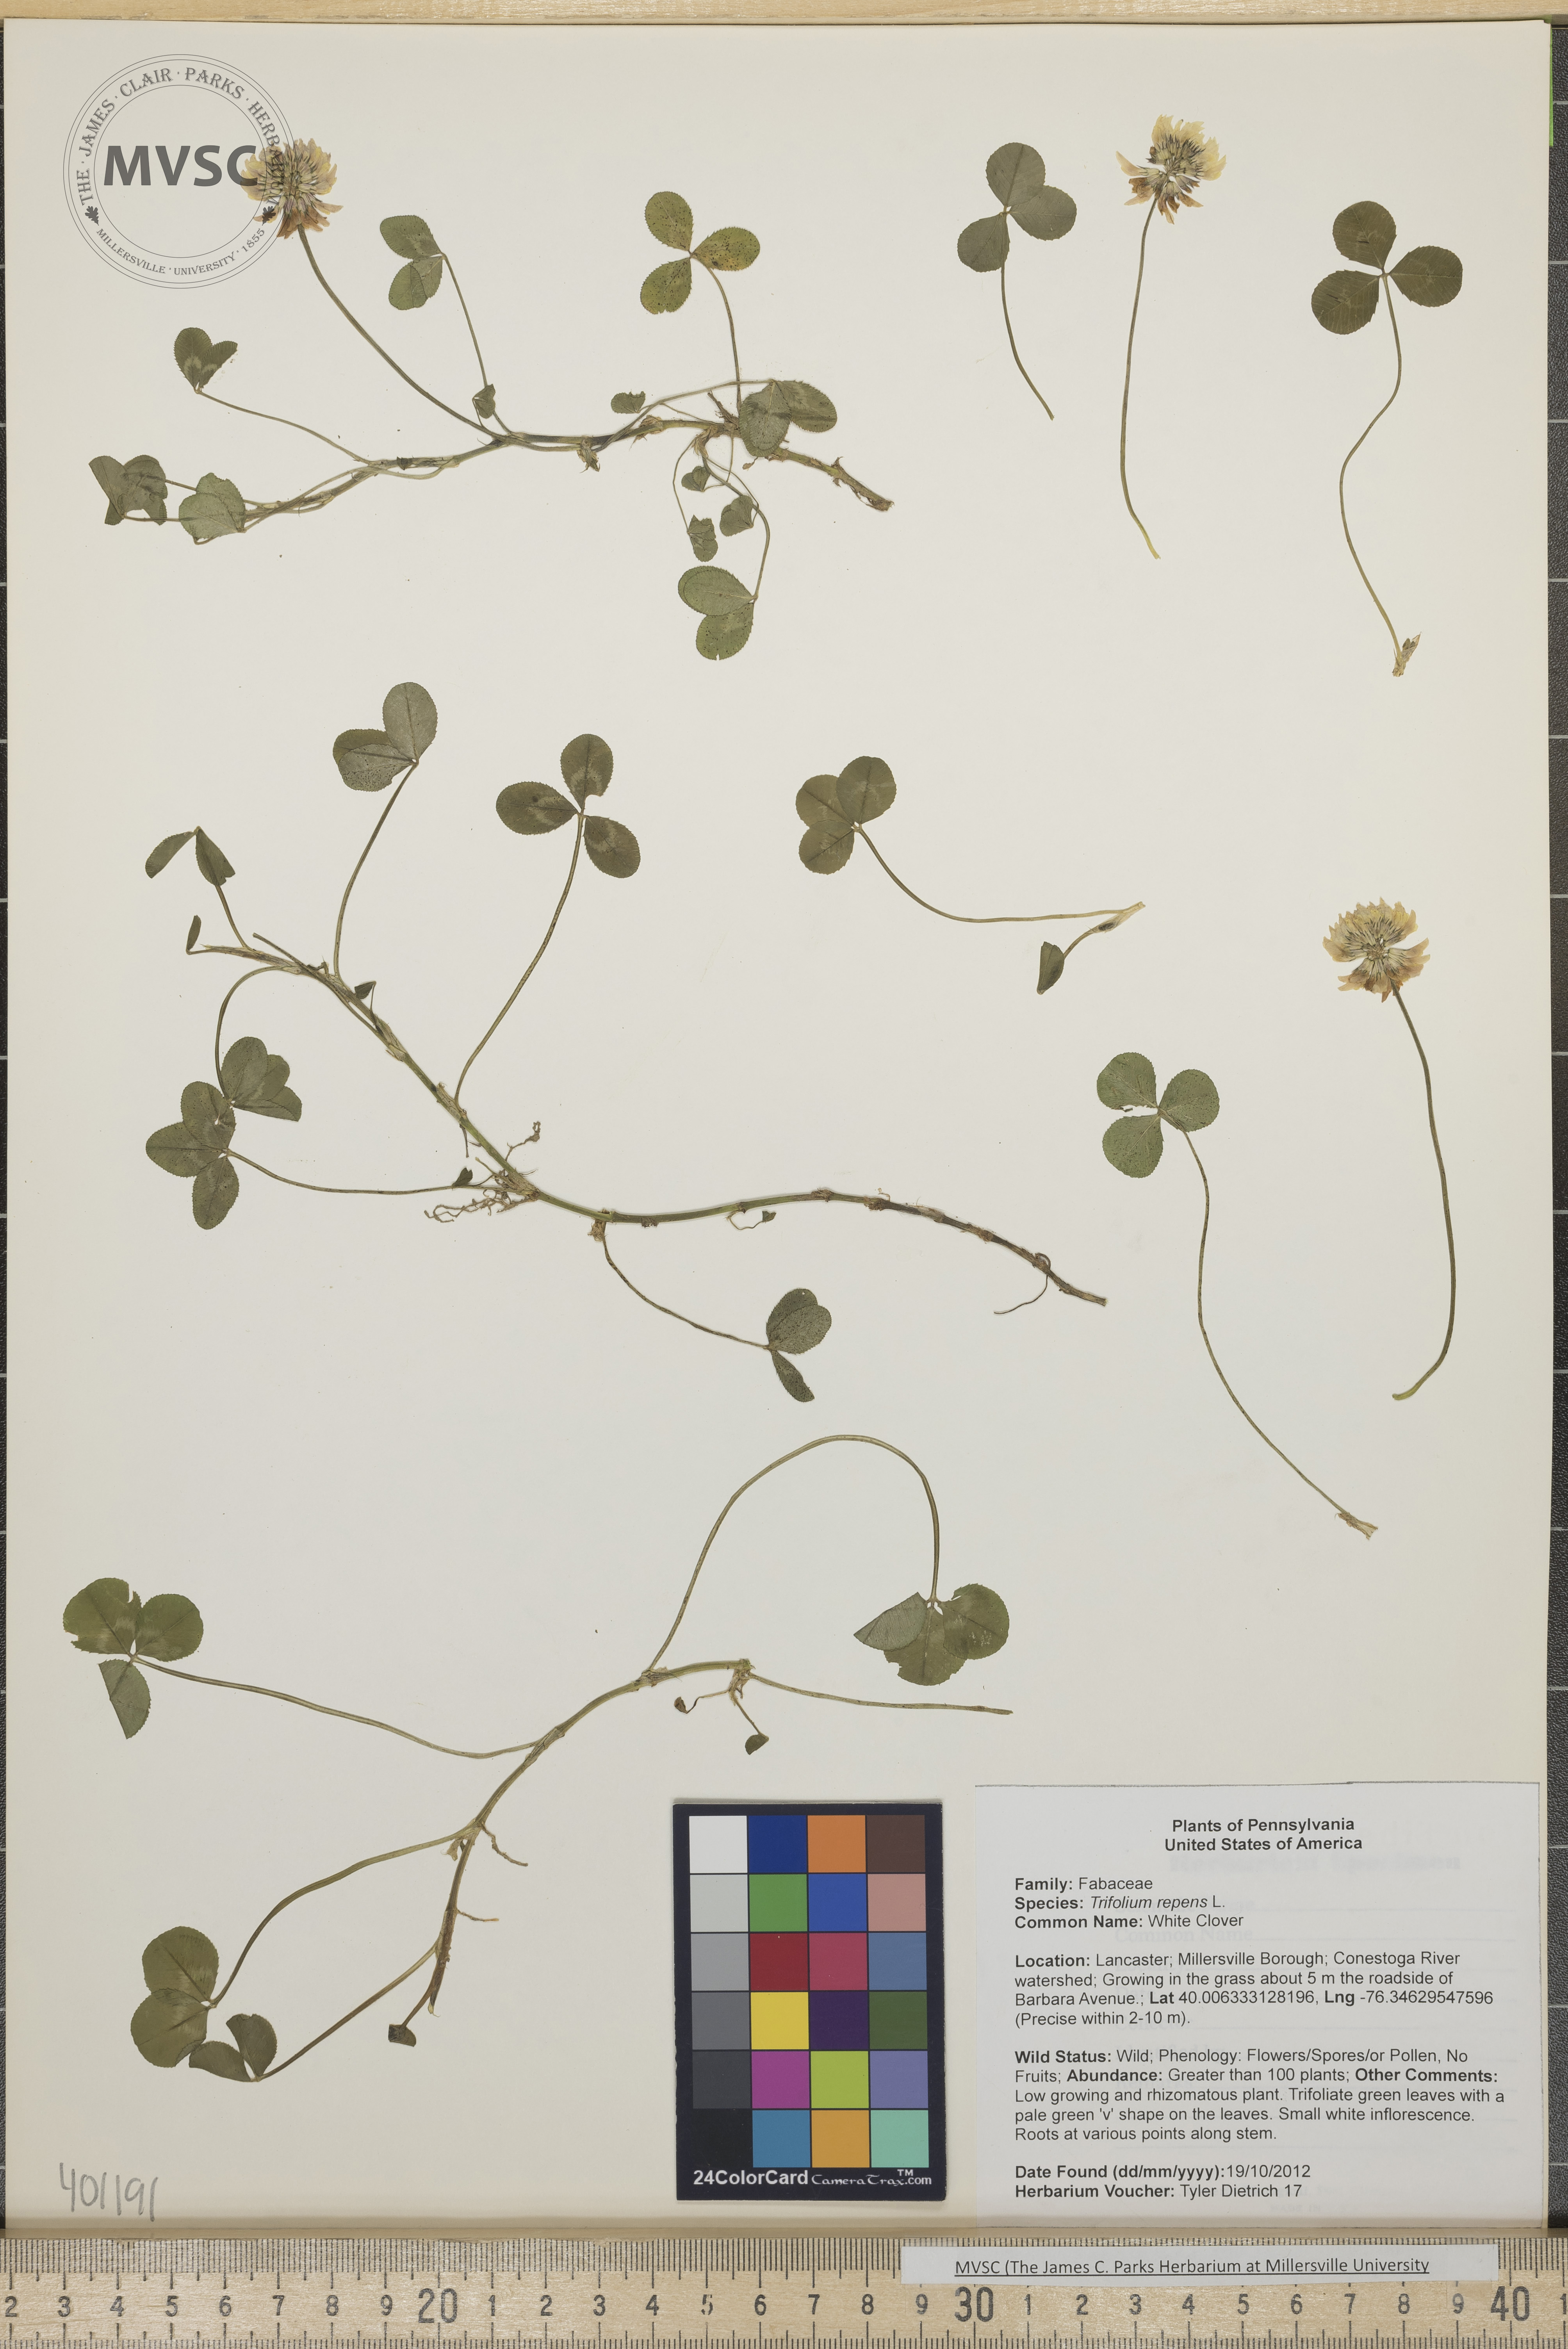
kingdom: Plantae
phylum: Tracheophyta
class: Magnoliopsida
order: Fabales
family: Fabaceae
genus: Trifolium
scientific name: Trifolium repens
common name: White clover
